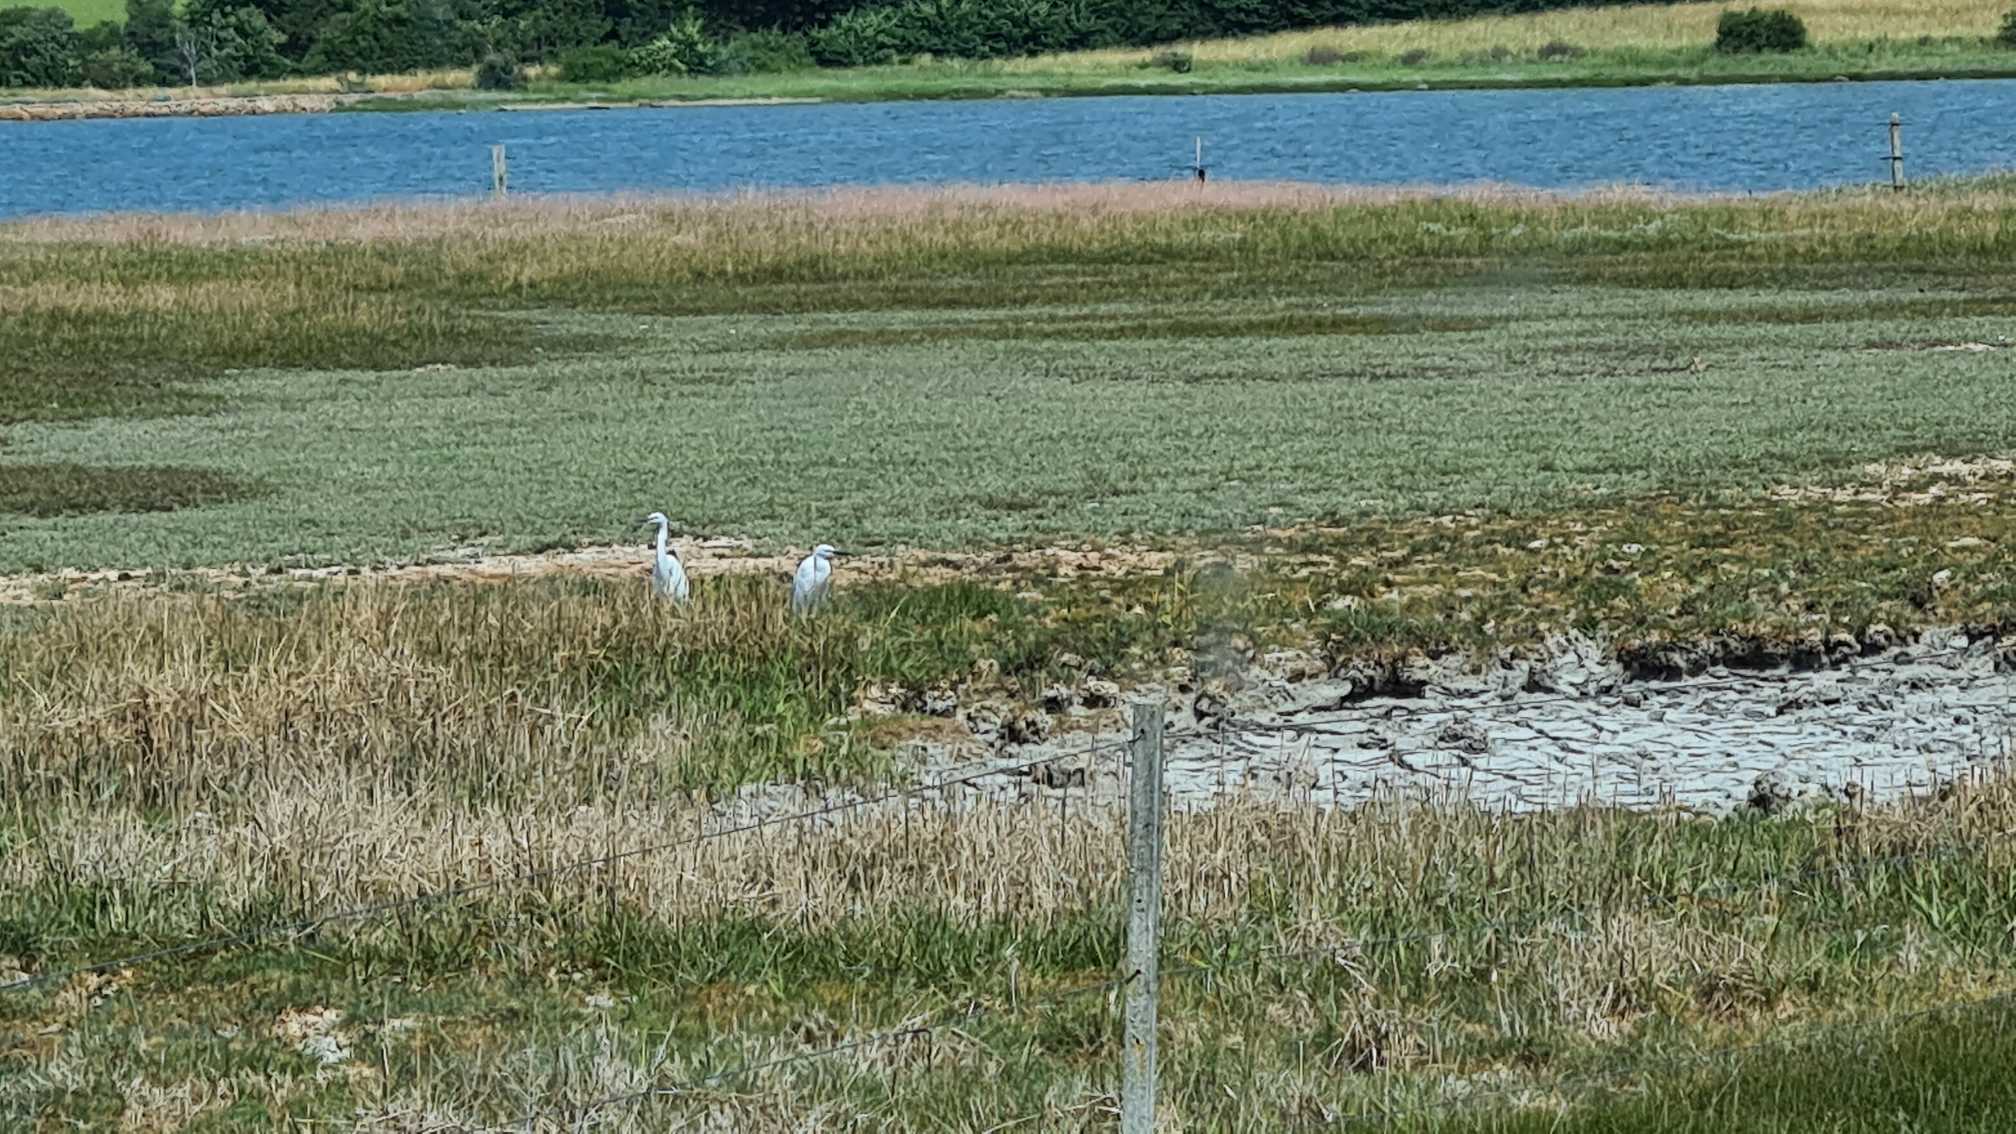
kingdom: Animalia
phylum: Chordata
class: Aves
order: Pelecaniformes
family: Ardeidae
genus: Egretta
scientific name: Egretta garzetta
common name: Silkehejre
